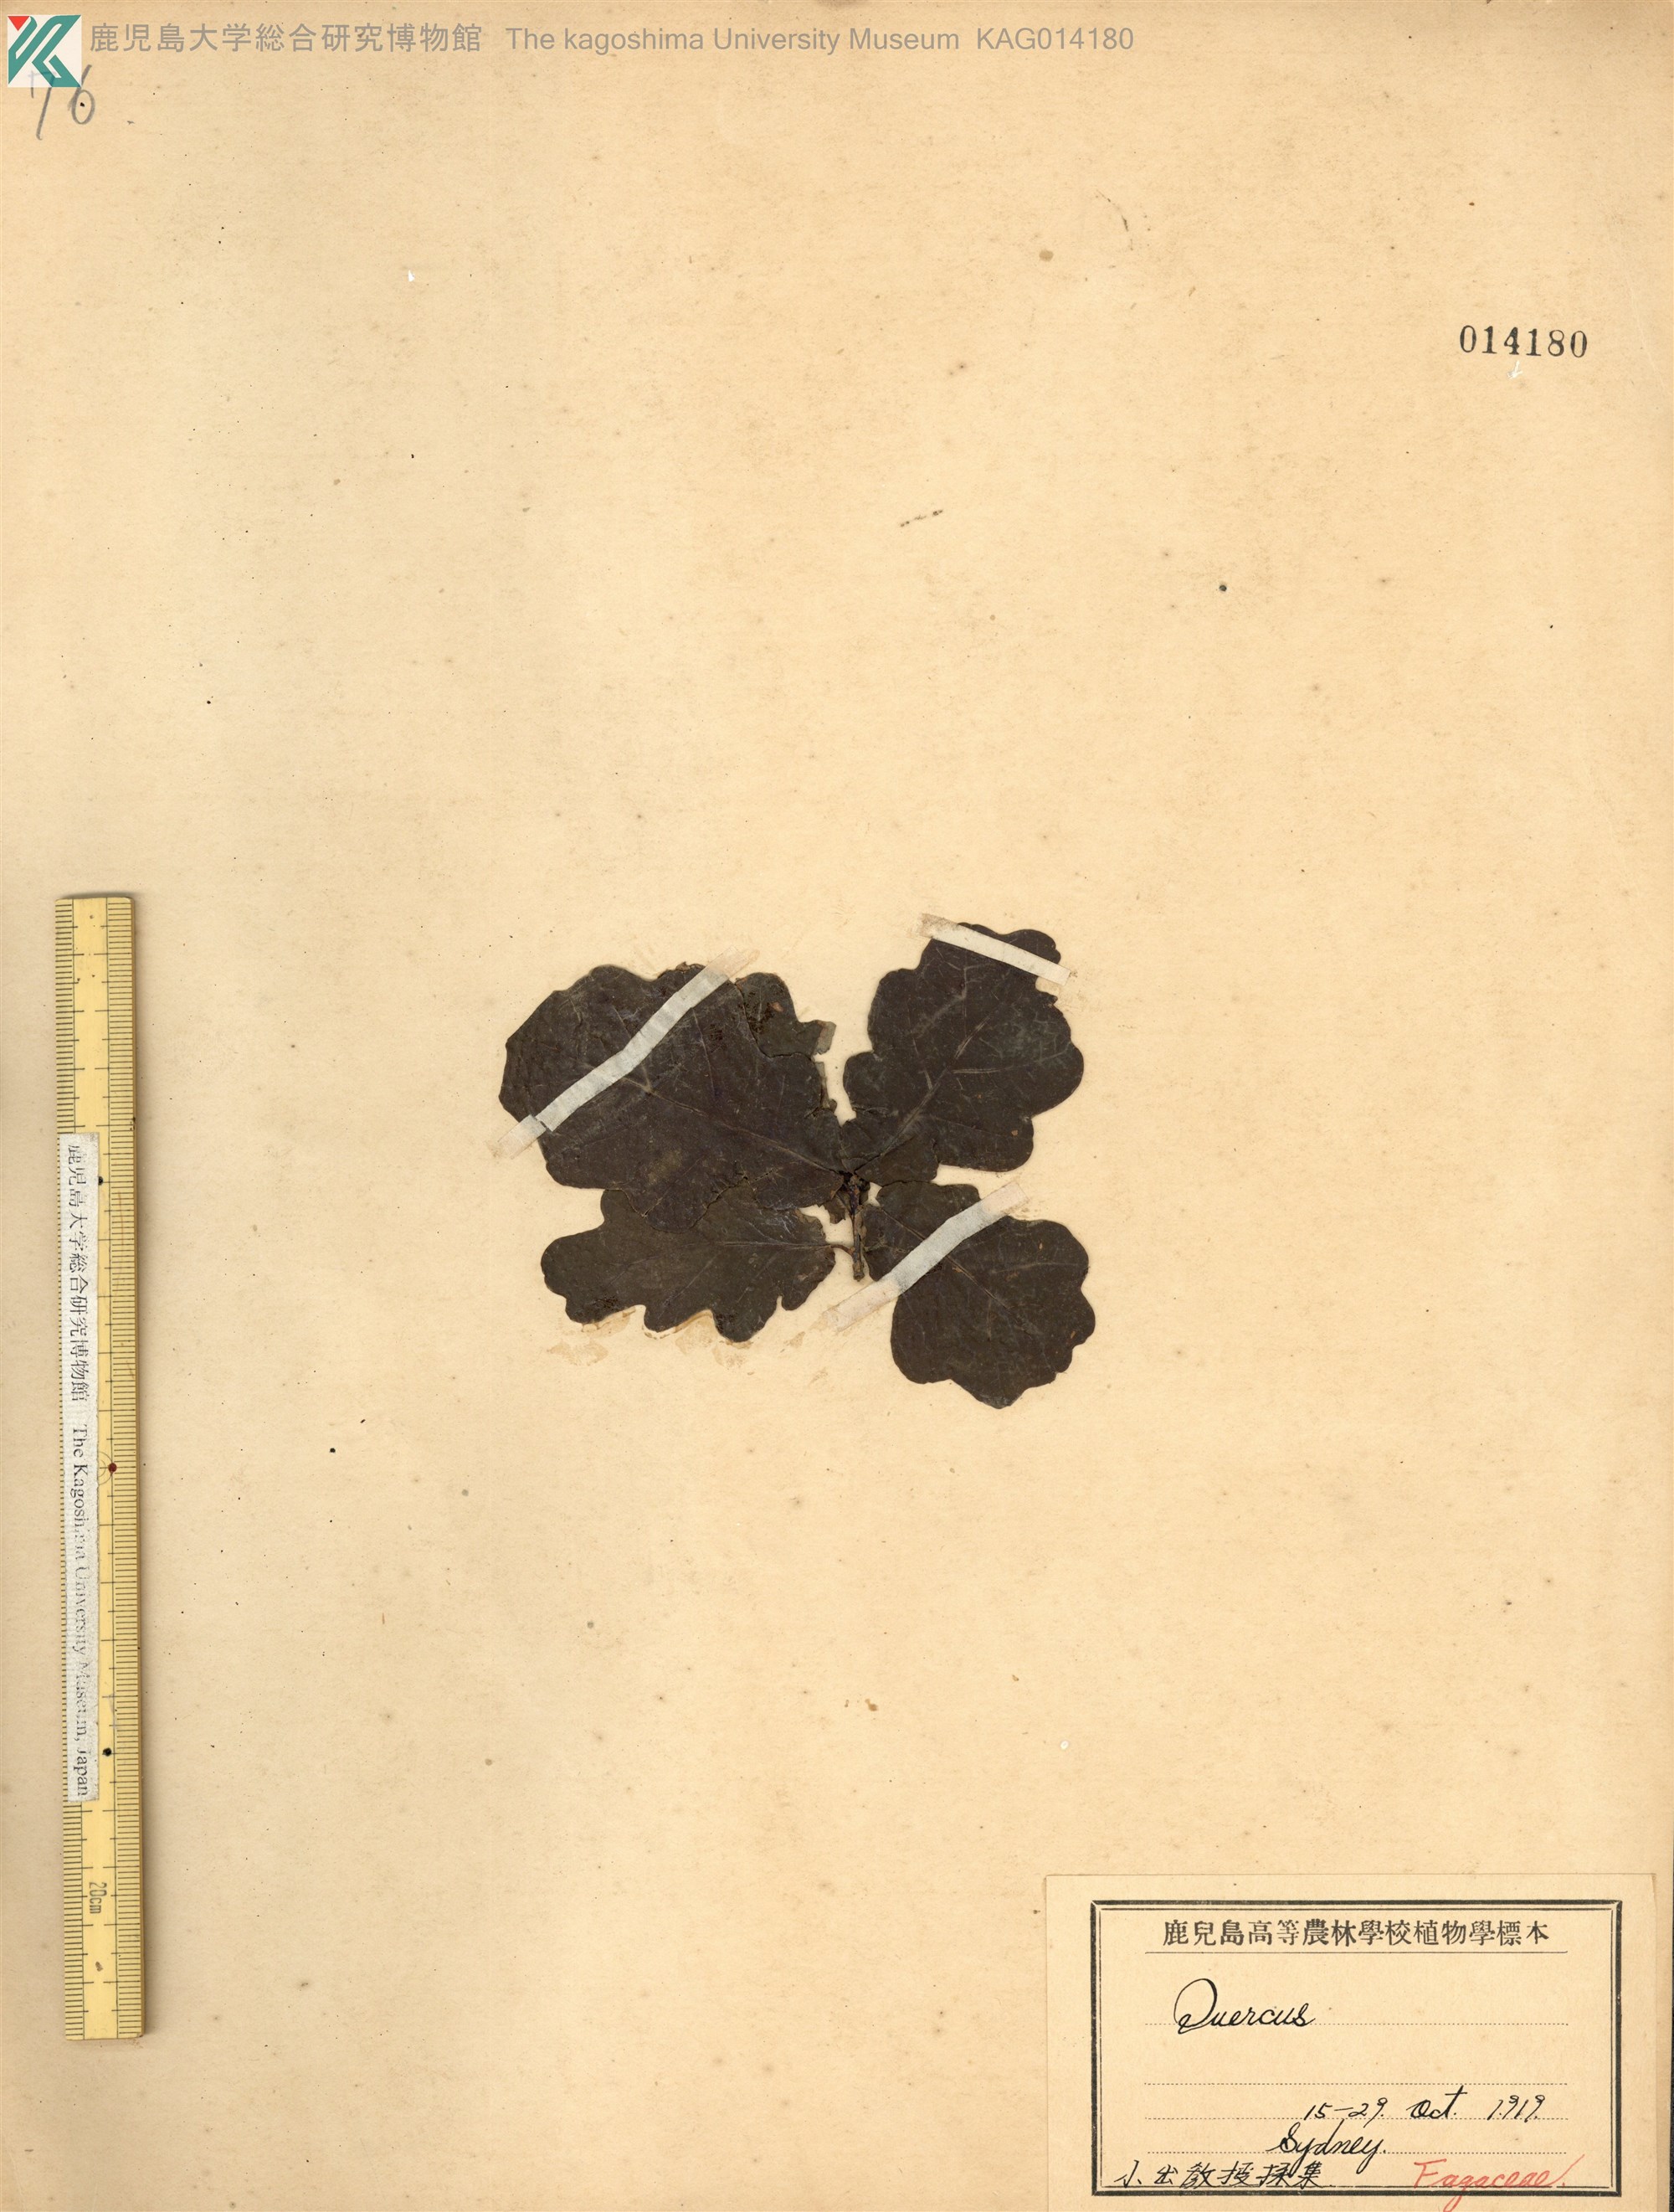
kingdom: Plantae
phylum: Tracheophyta
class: Magnoliopsida
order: Fagales
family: Fagaceae
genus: Quercus
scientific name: Quercus robur
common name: Pedunculate oak
